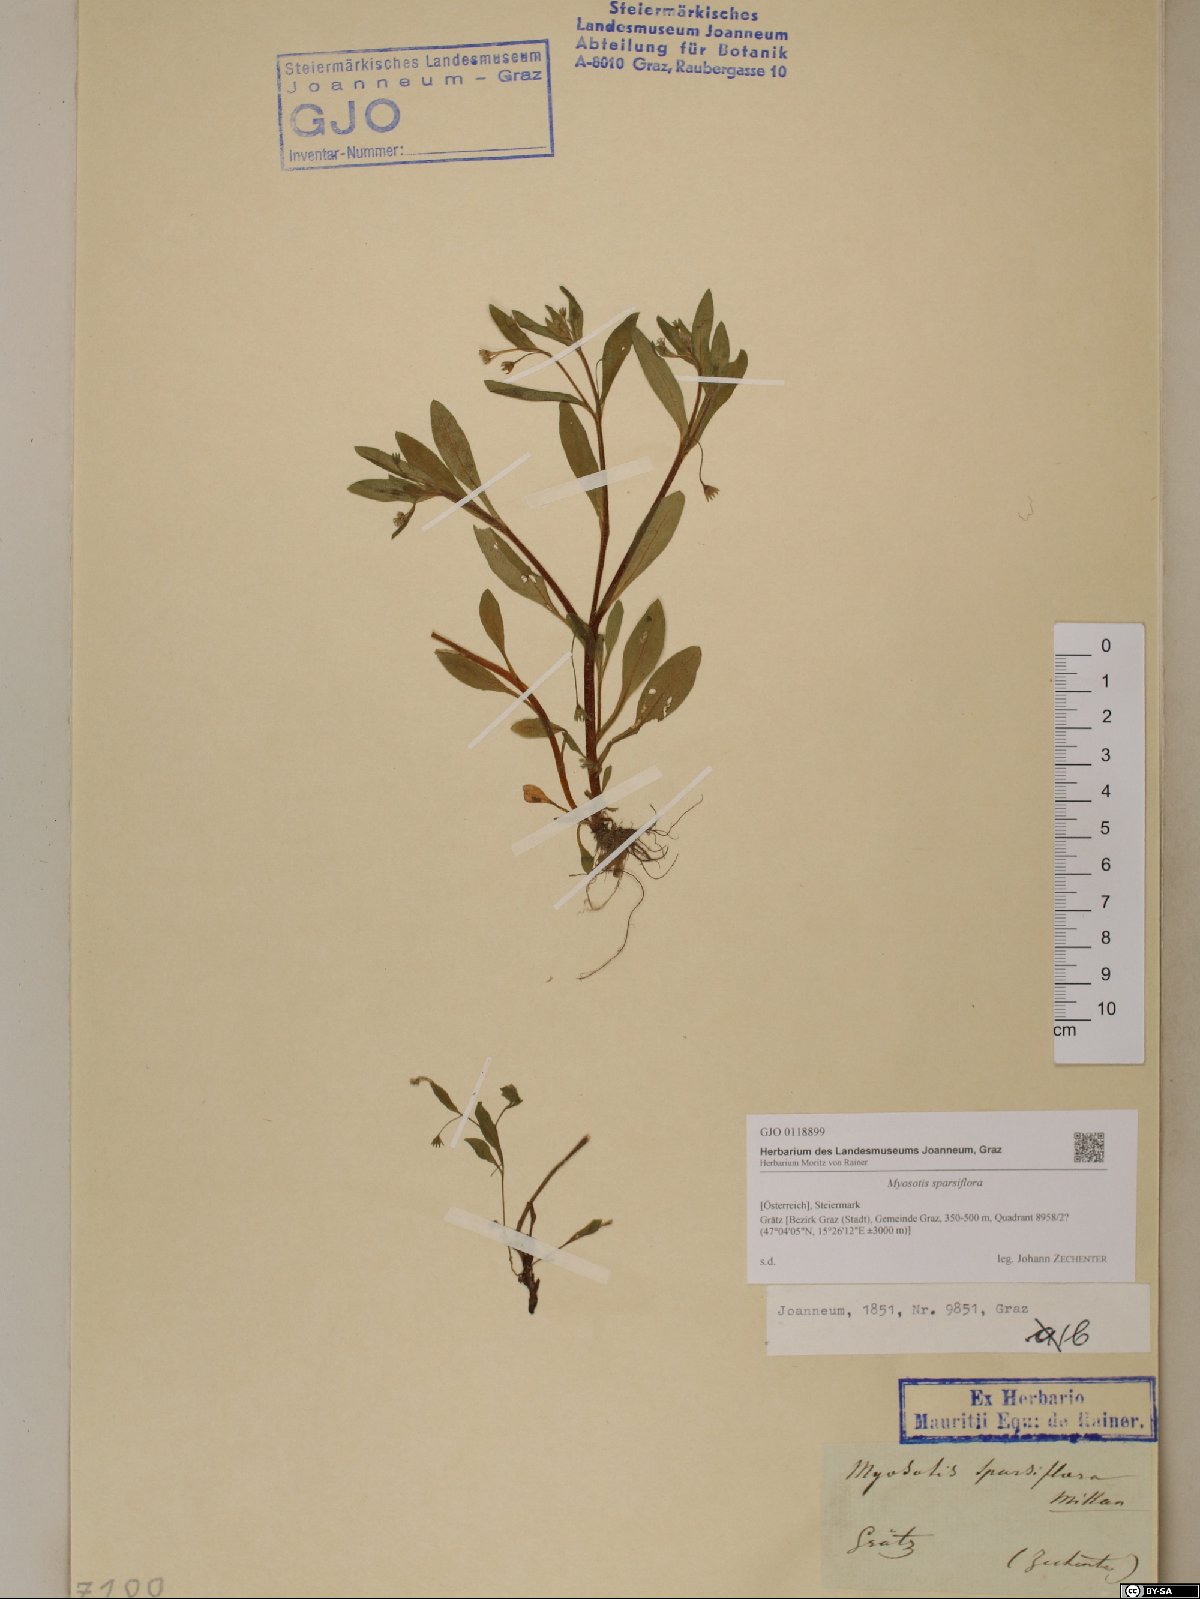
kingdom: Plantae
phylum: Tracheophyta
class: Magnoliopsida
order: Boraginales
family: Boraginaceae
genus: Myosotis
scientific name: Myosotis sparsiflora
